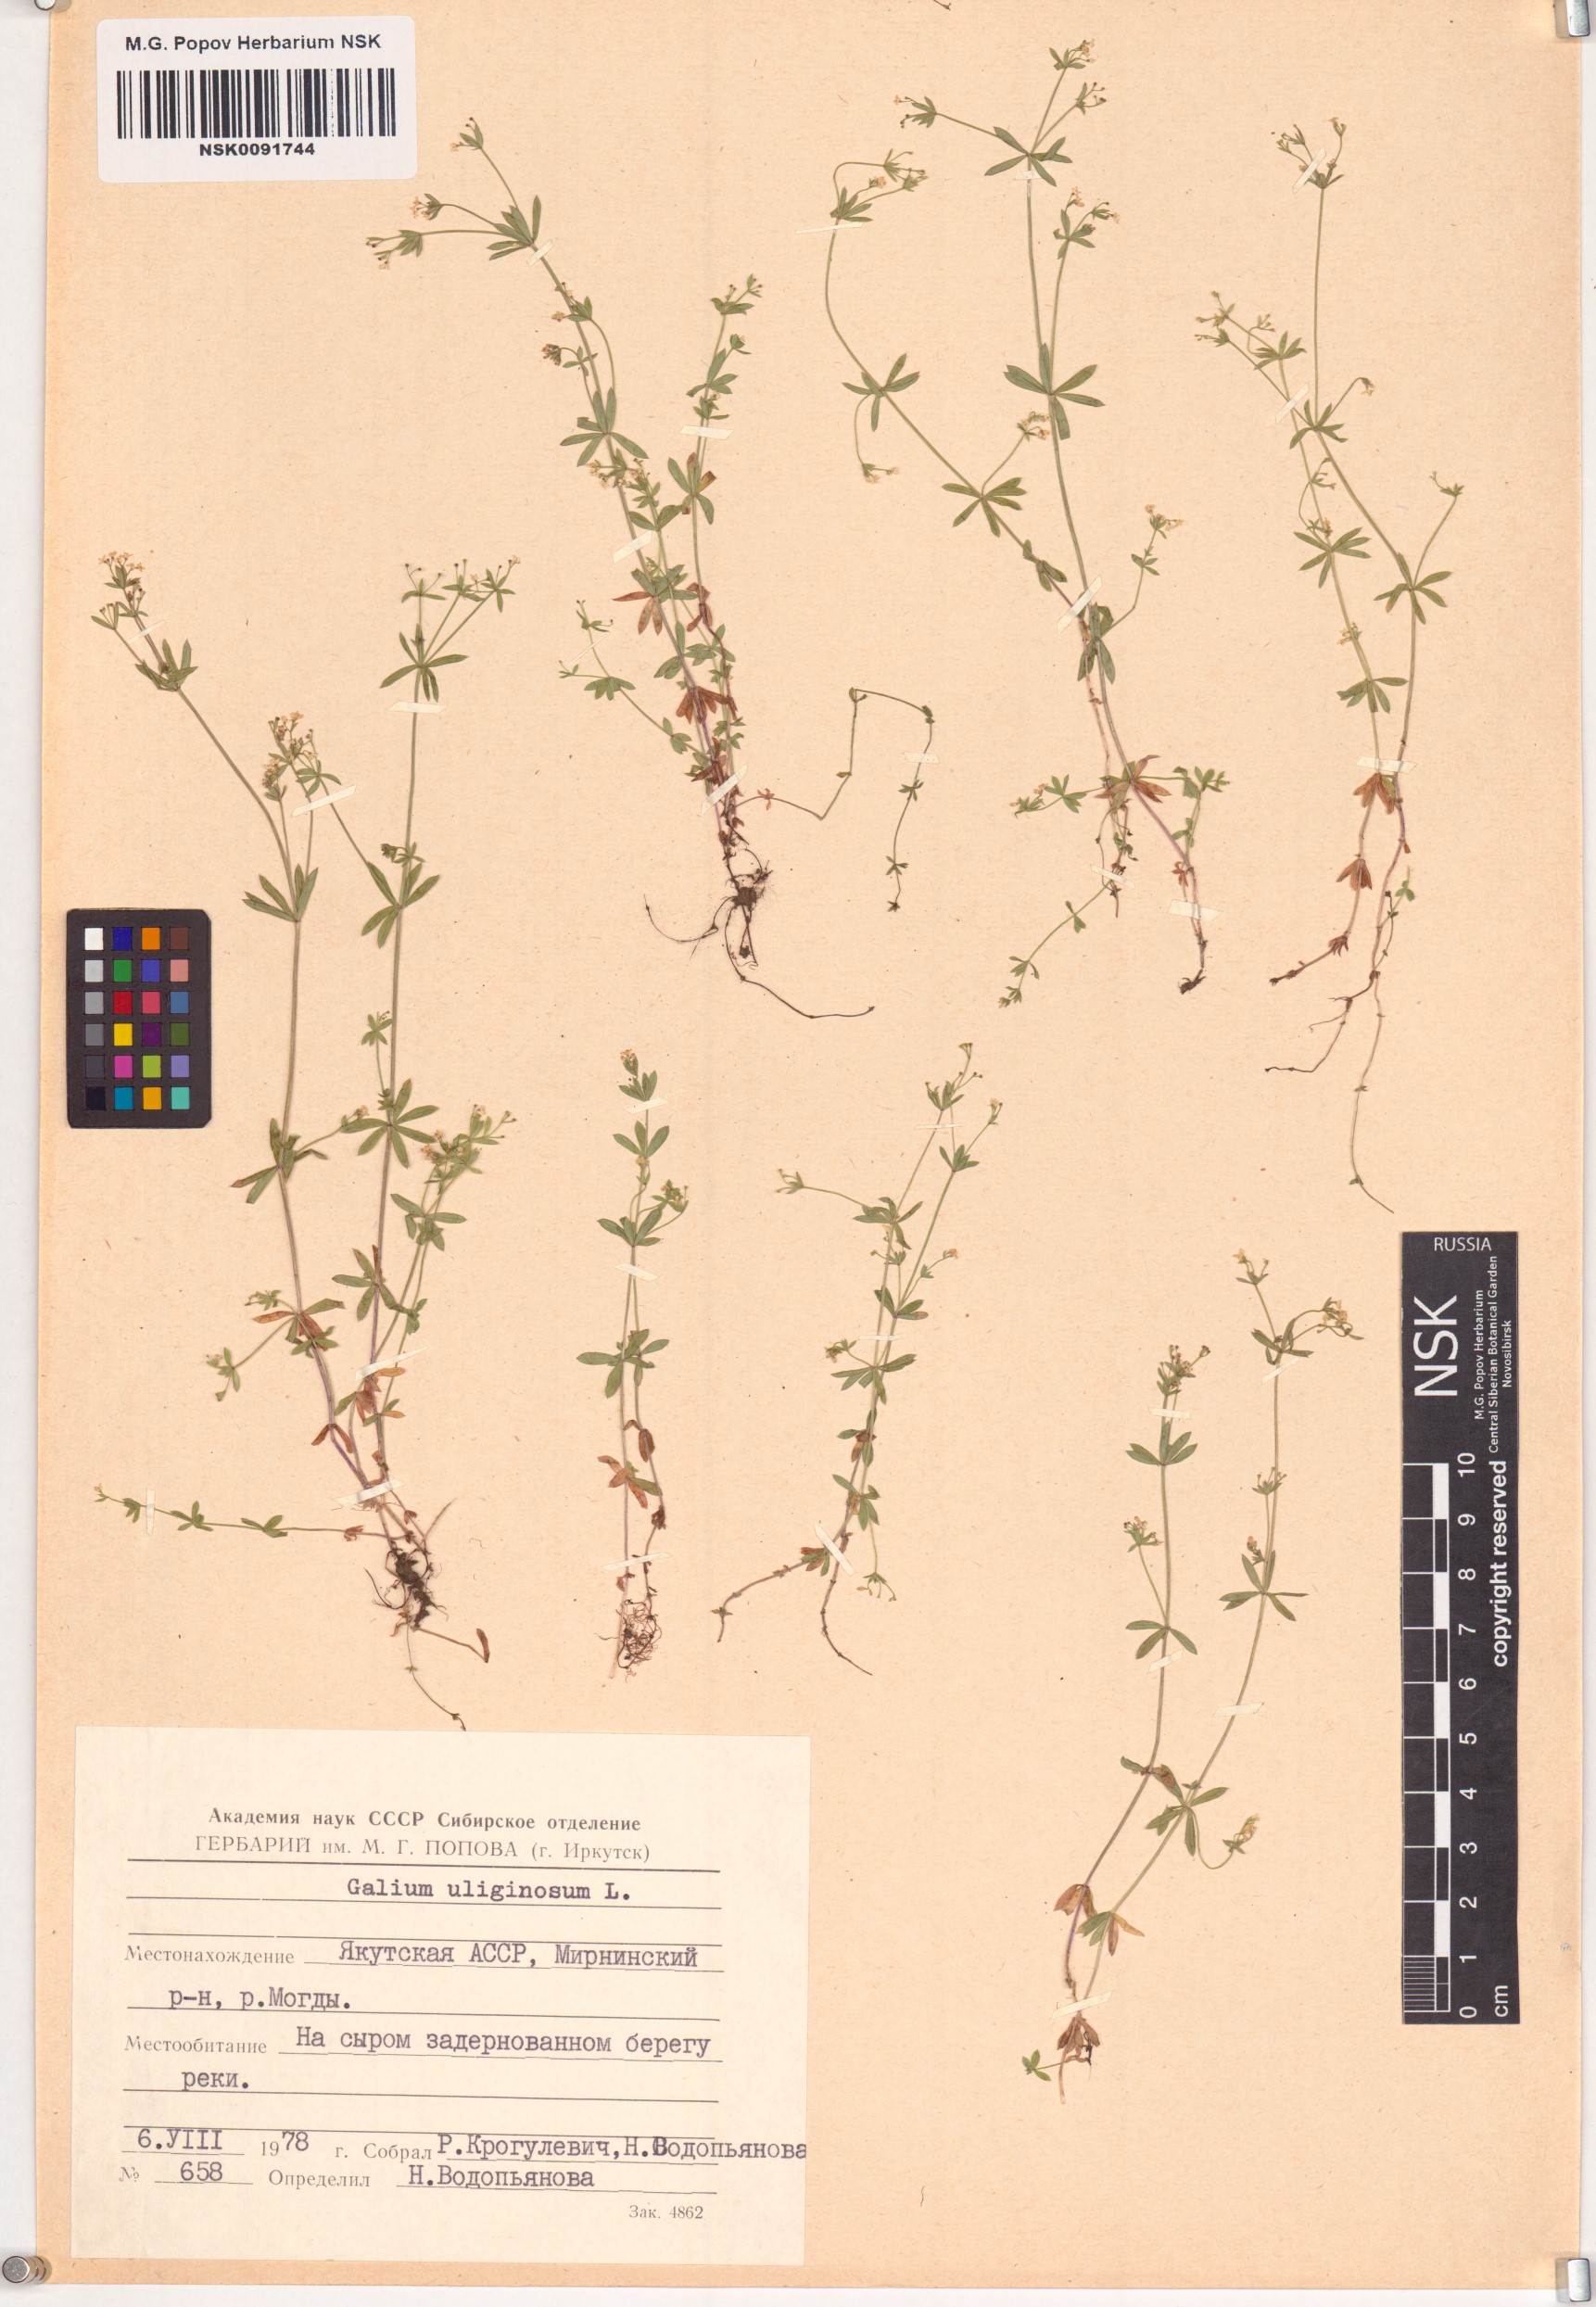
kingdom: Plantae
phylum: Tracheophyta
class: Magnoliopsida
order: Gentianales
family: Rubiaceae
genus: Galium
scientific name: Galium uliginosum
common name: Fen bedstraw
